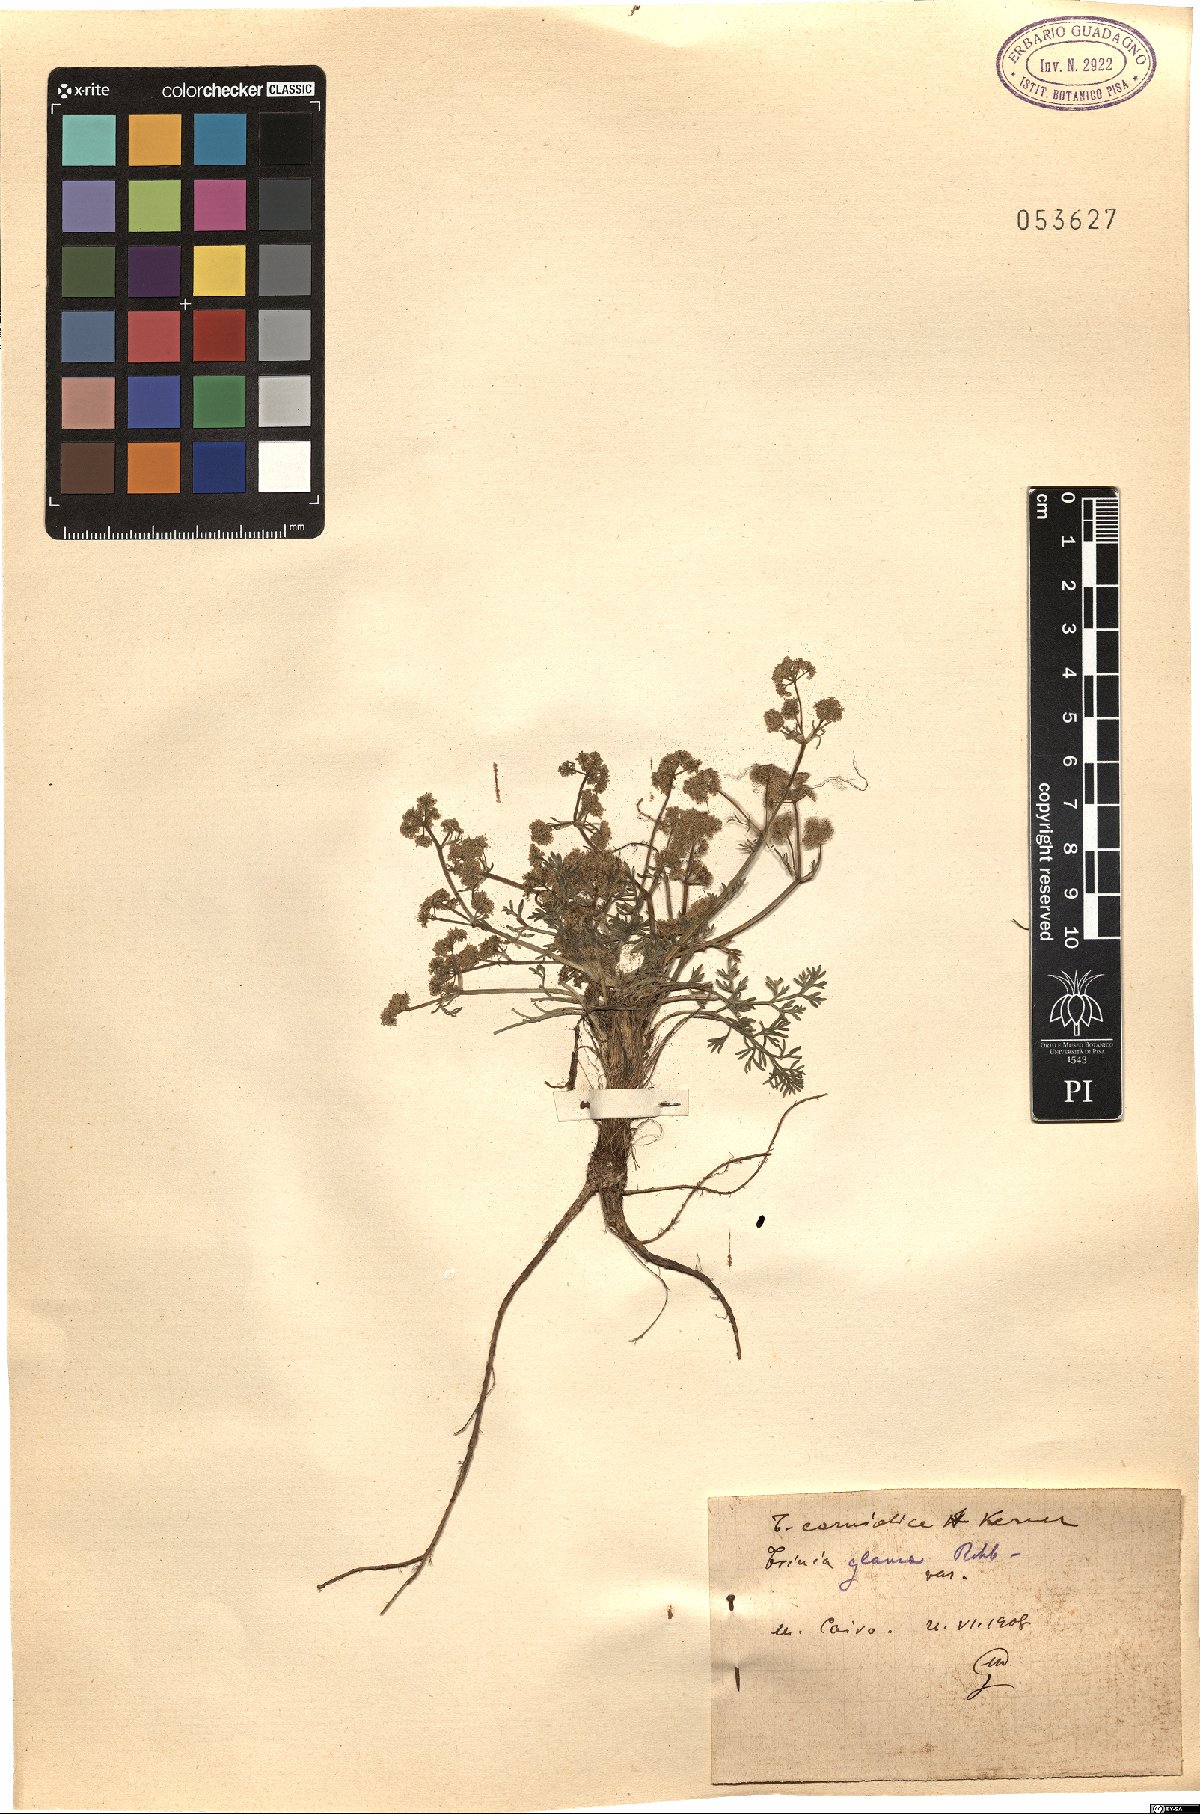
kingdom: Plantae
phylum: Tracheophyta
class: Magnoliopsida
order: Apiales
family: Apiaceae
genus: Trinia
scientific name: Trinia glauca
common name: Honewort
